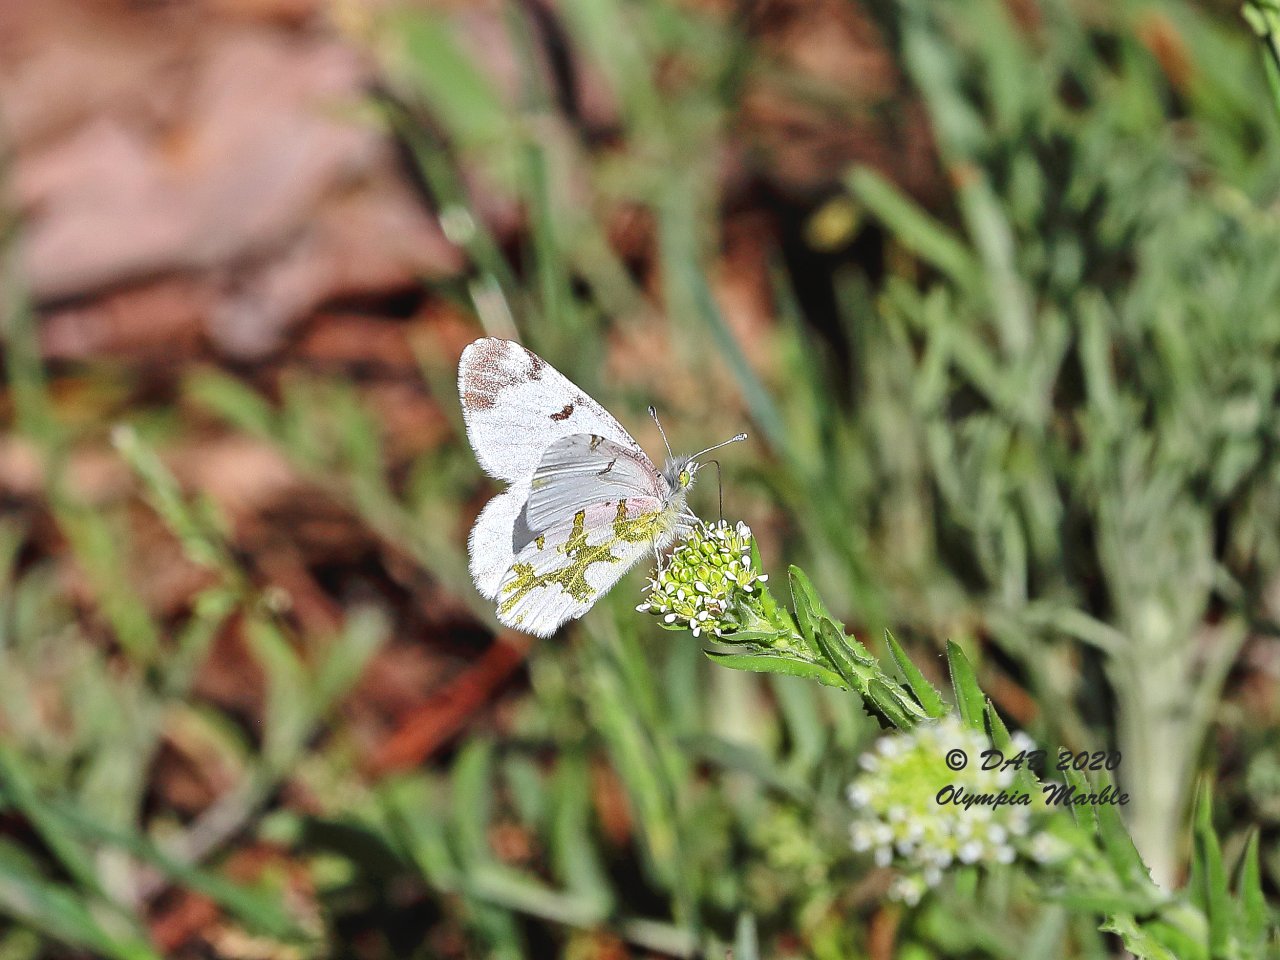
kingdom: Animalia
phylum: Arthropoda
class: Insecta
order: Lepidoptera
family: Pieridae
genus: Euchloe
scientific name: Euchloe olympia
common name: Olympia Marble
